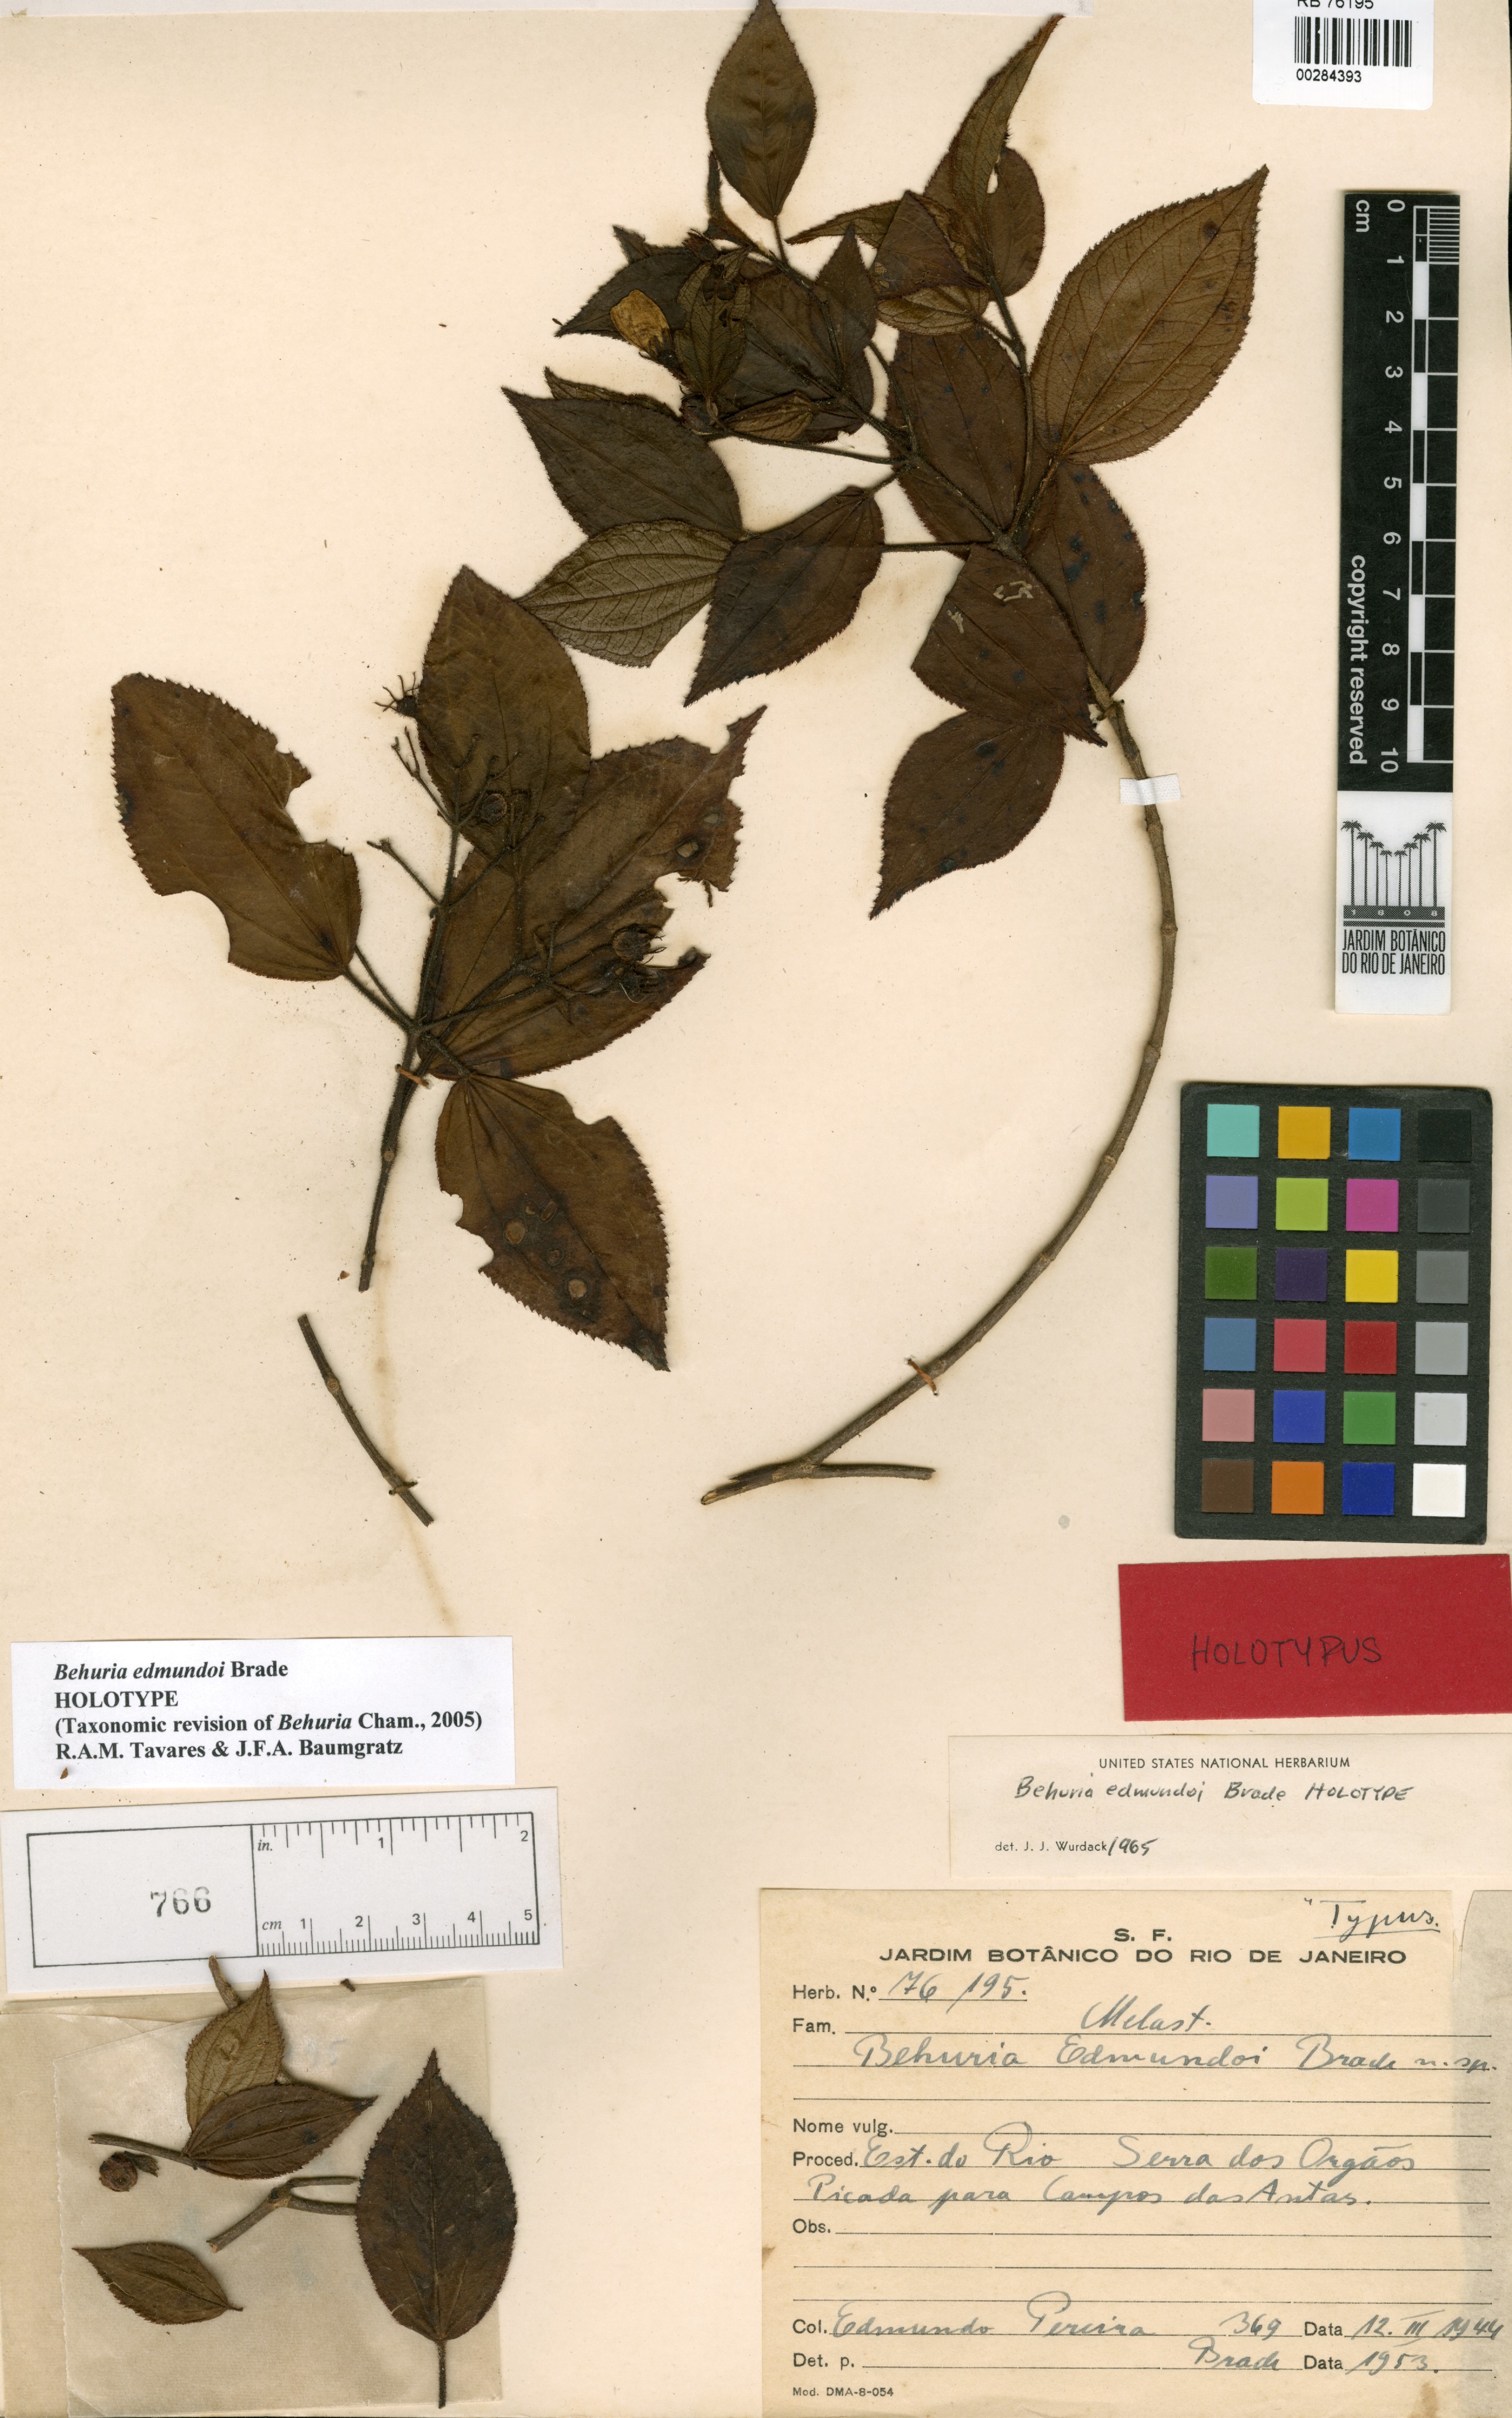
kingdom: Plantae
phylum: Tracheophyta
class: Magnoliopsida
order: Myrtales
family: Melastomataceae
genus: Huberia
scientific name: Huberia edmundoi
